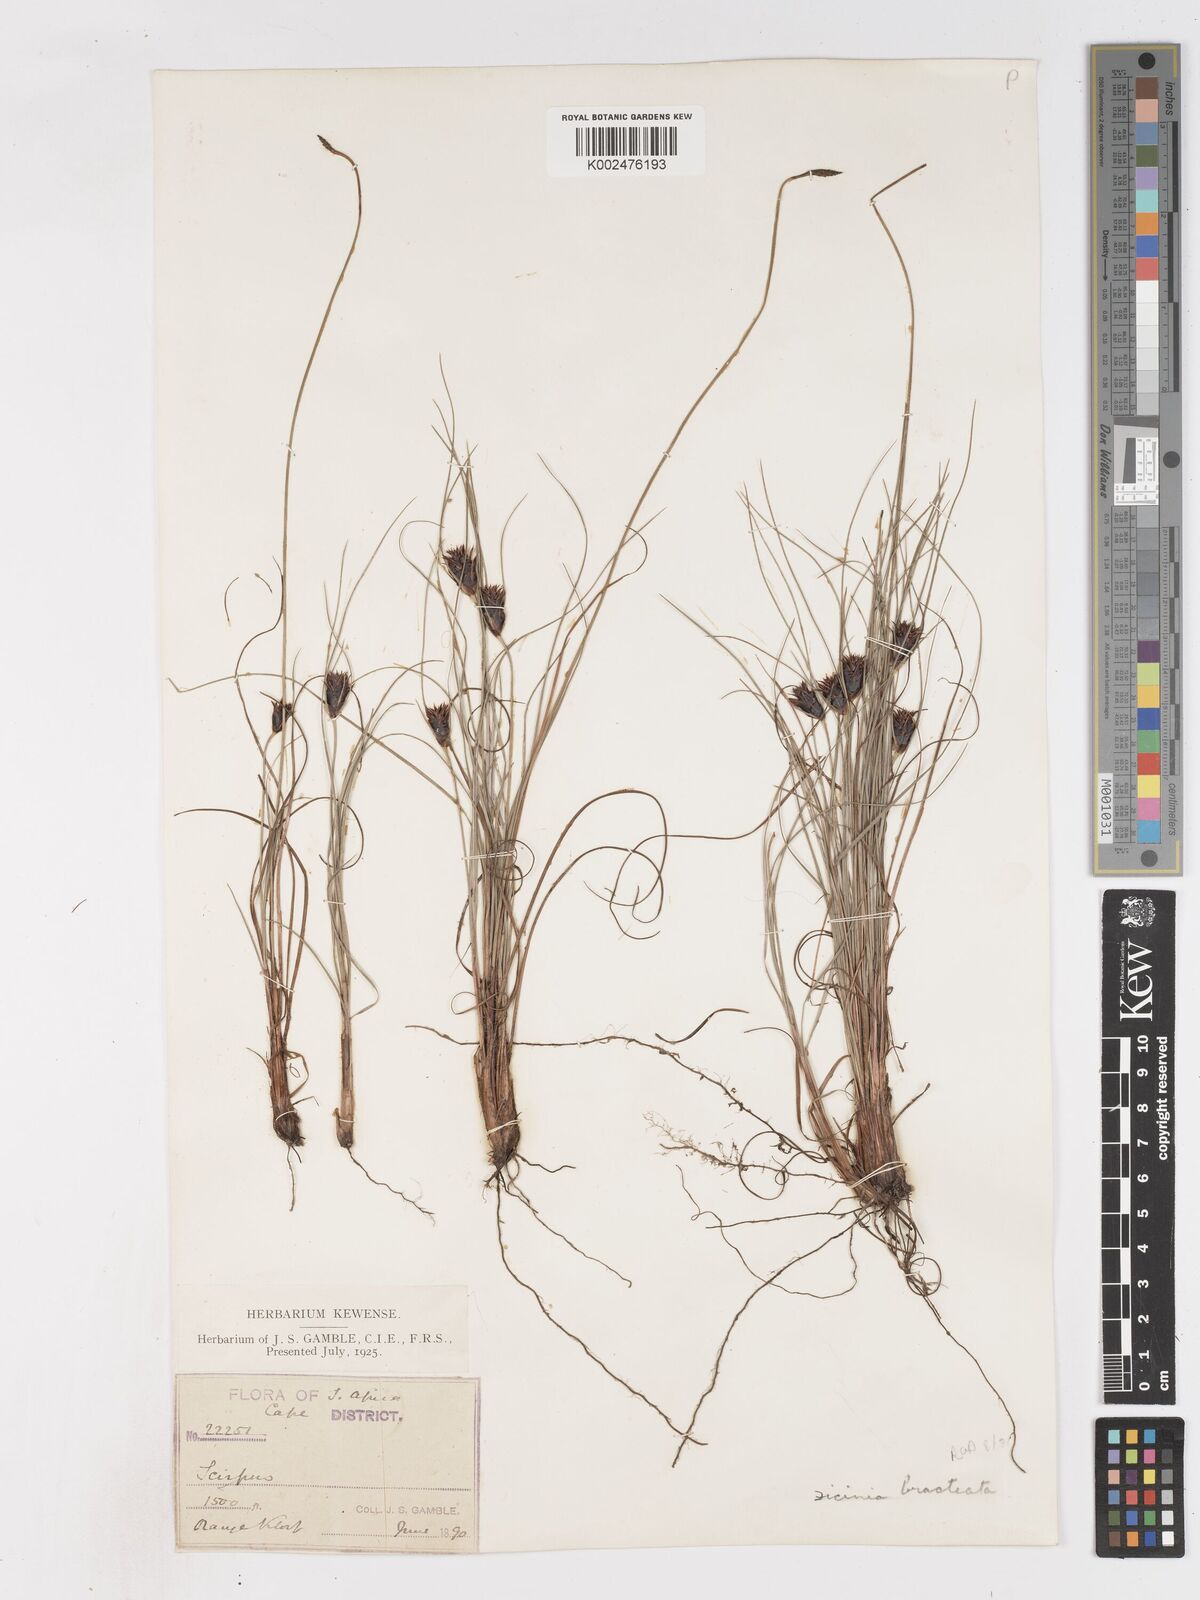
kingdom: Plantae
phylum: Tracheophyta
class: Liliopsida
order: Poales
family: Cyperaceae
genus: Ficinia
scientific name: Ficinia nigrescens
